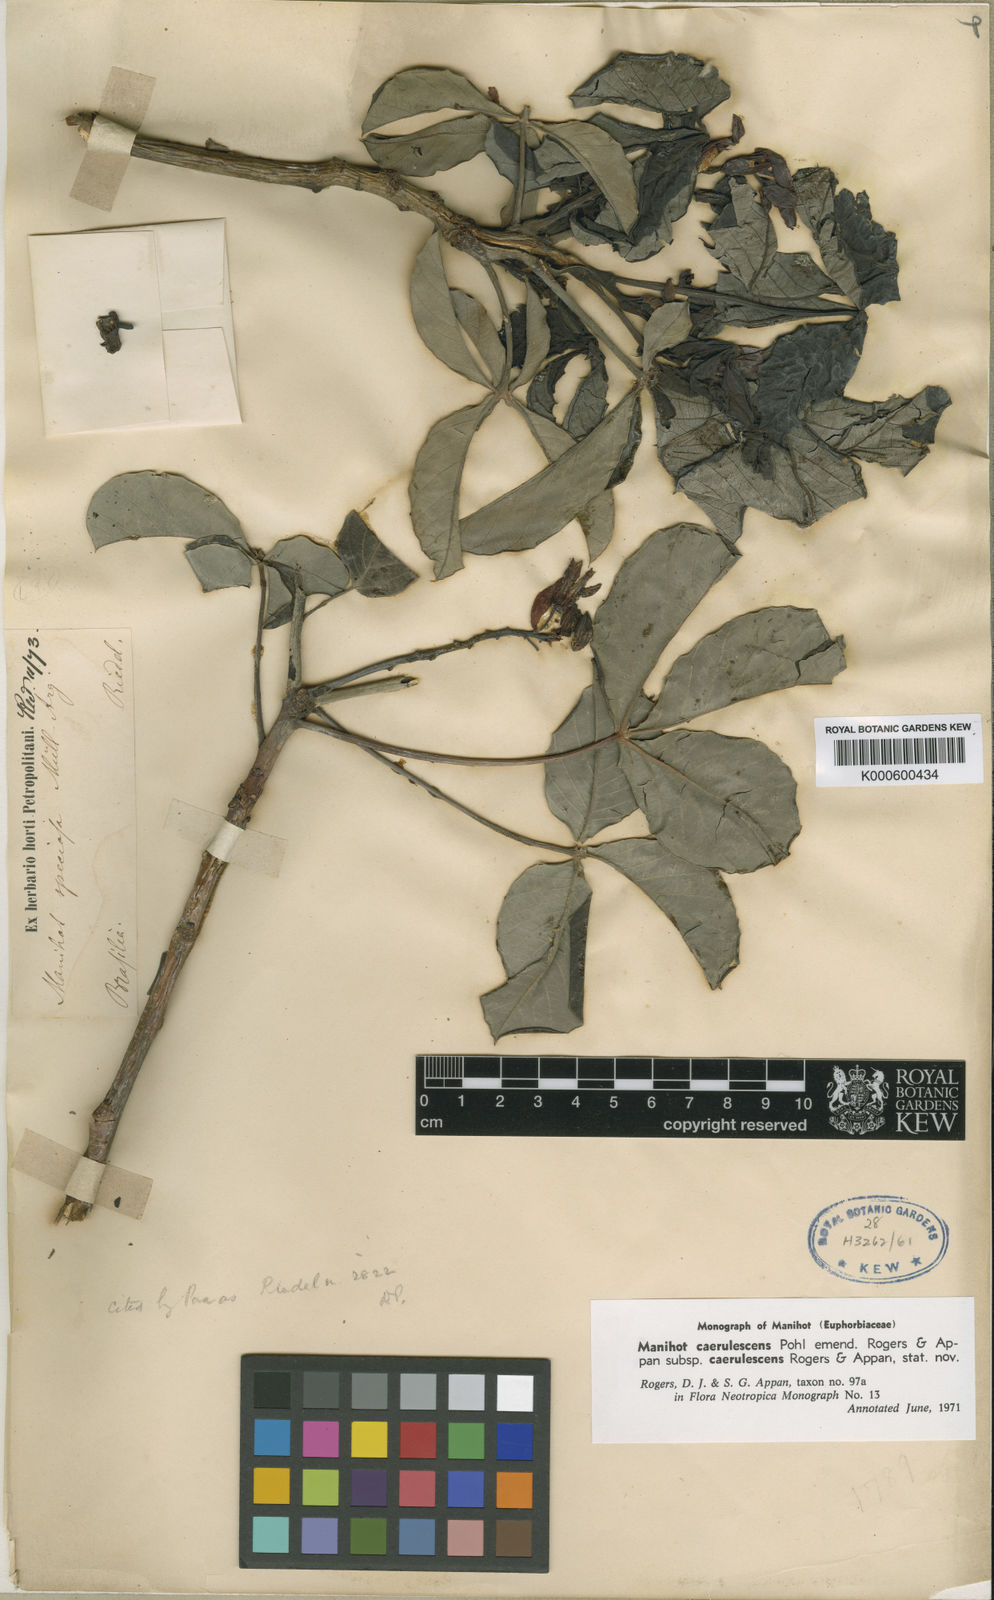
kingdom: Plantae
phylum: Tracheophyta
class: Magnoliopsida
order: Malpighiales
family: Euphorbiaceae
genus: Manihot
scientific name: Manihot caerulescens
